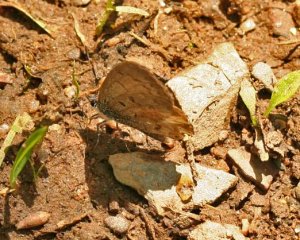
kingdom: Animalia
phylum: Arthropoda
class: Insecta
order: Lepidoptera
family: Lycaenidae
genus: Celastrina
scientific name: Celastrina lucia
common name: Northern Spring Azure
